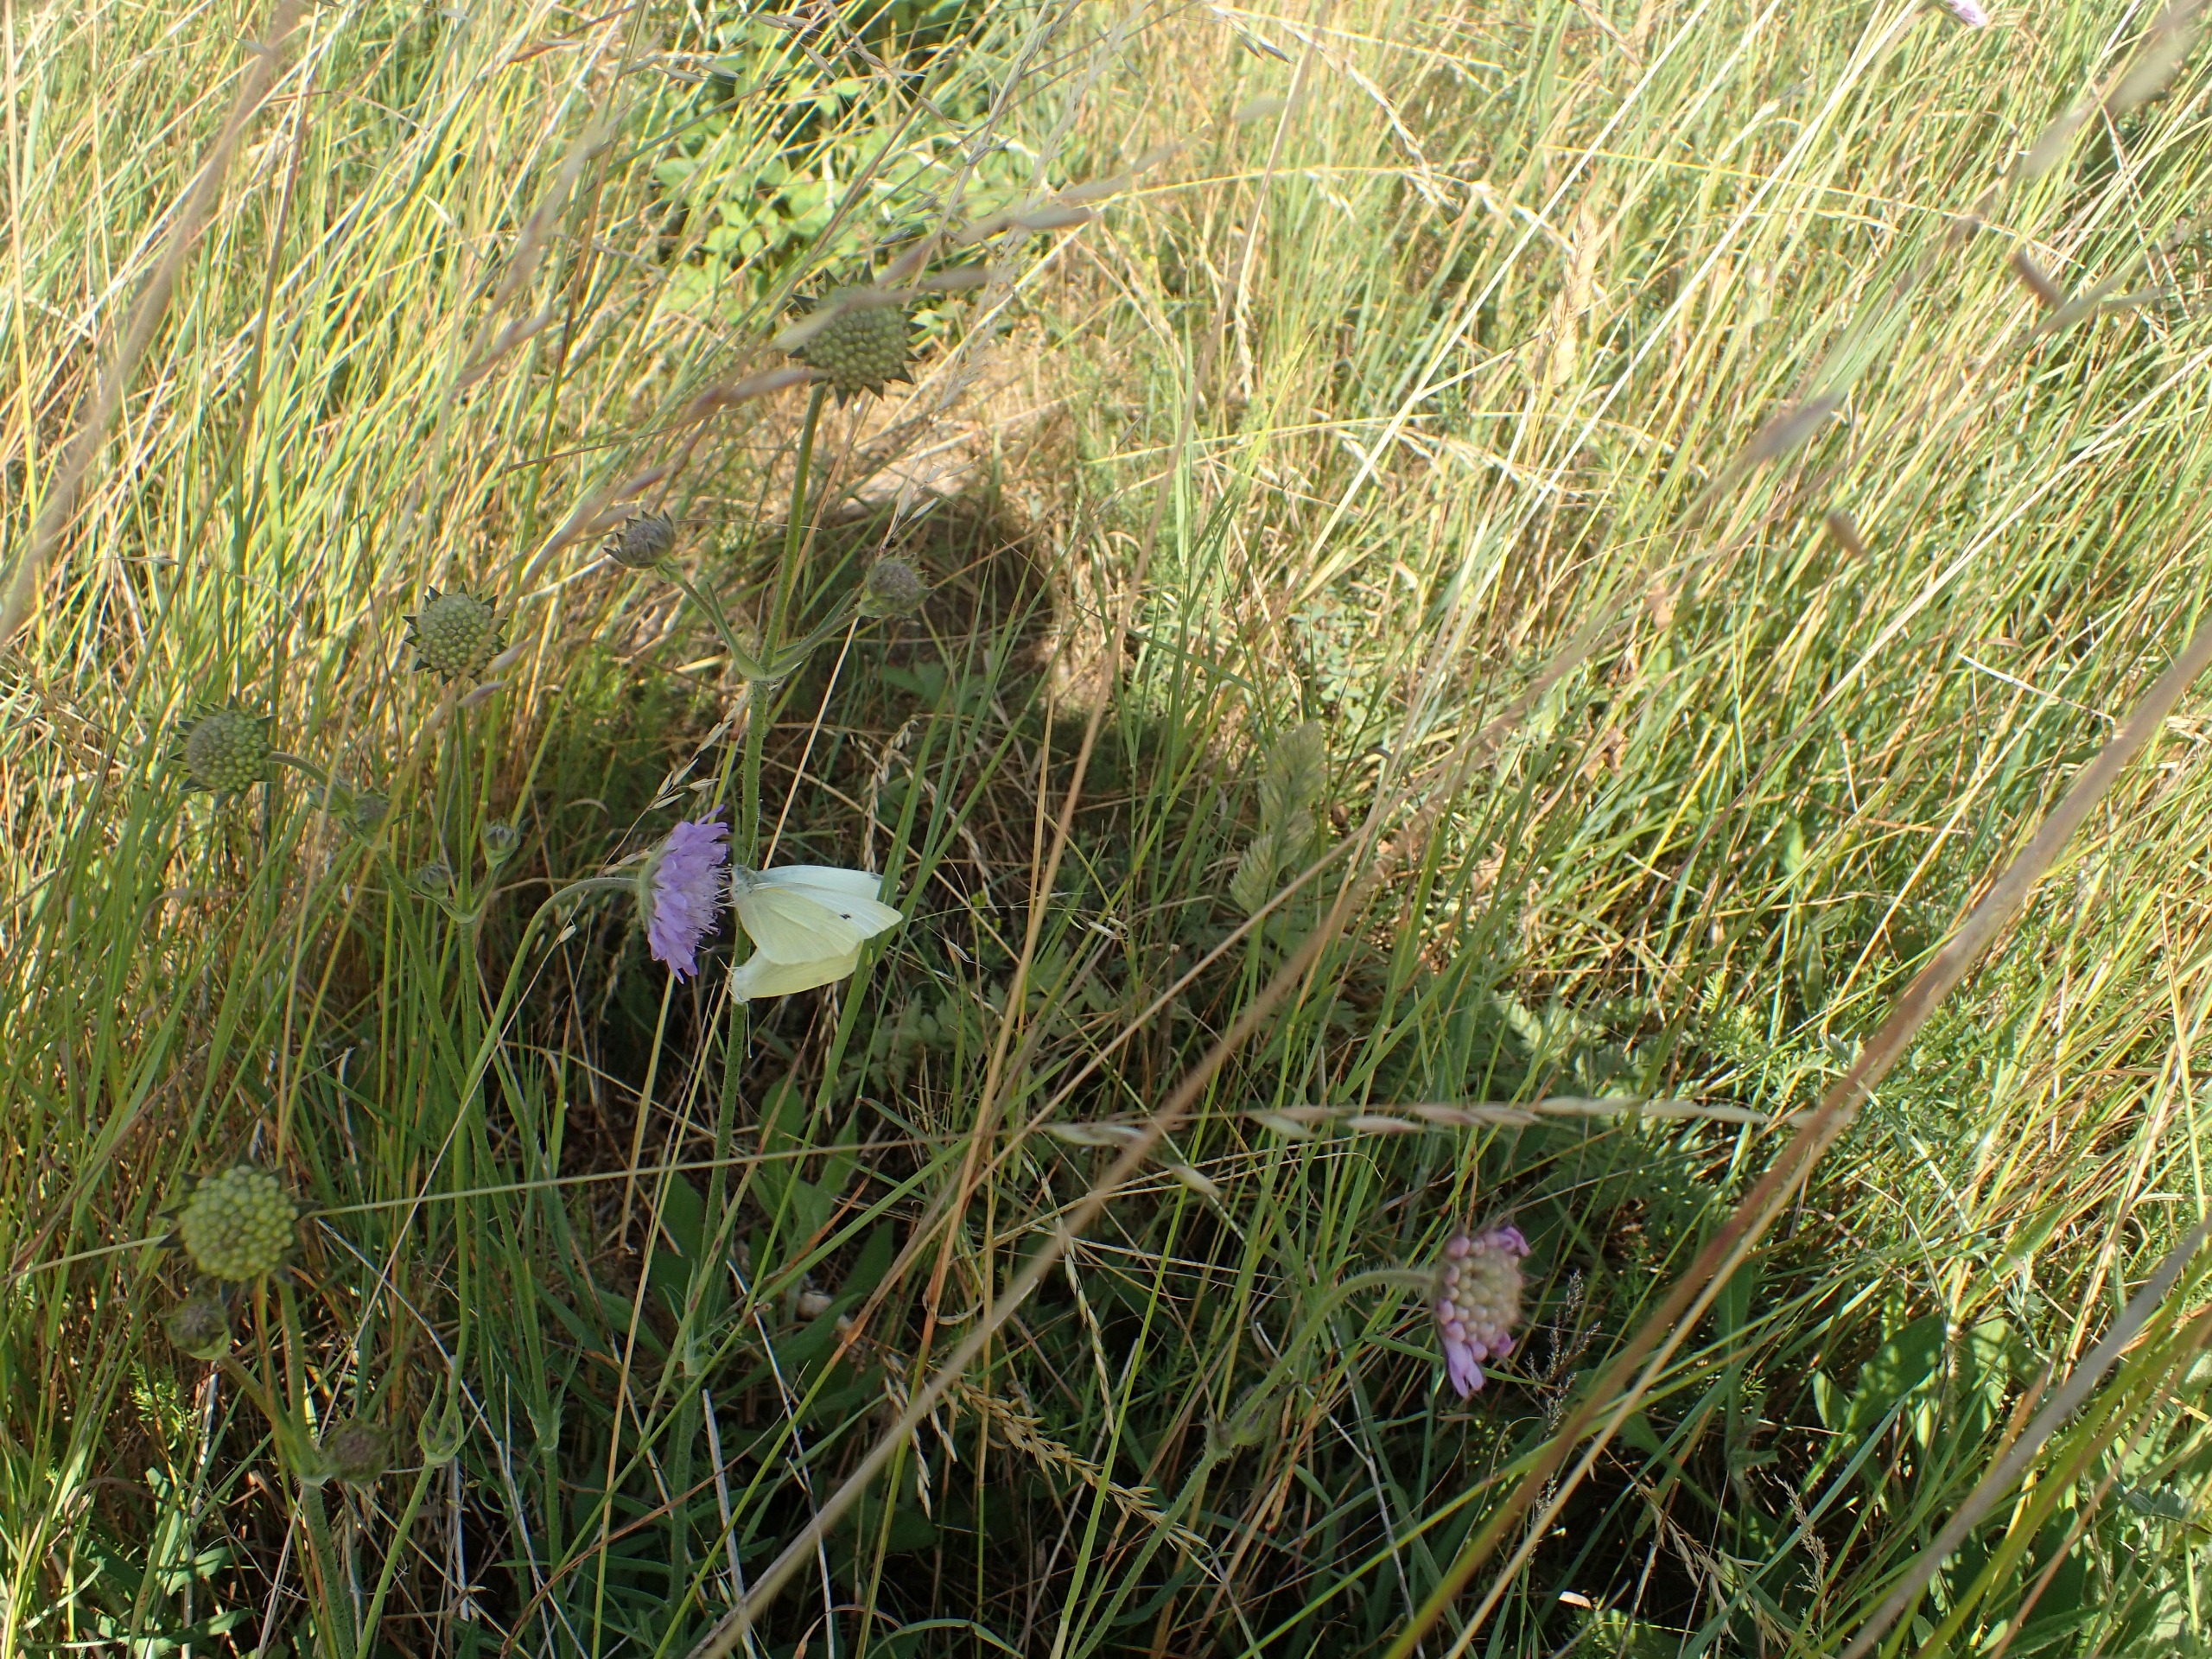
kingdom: Animalia
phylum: Arthropoda
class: Insecta
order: Lepidoptera
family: Pieridae
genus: Pieris
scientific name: Pieris rapae
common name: Lille kålsommerfugl
